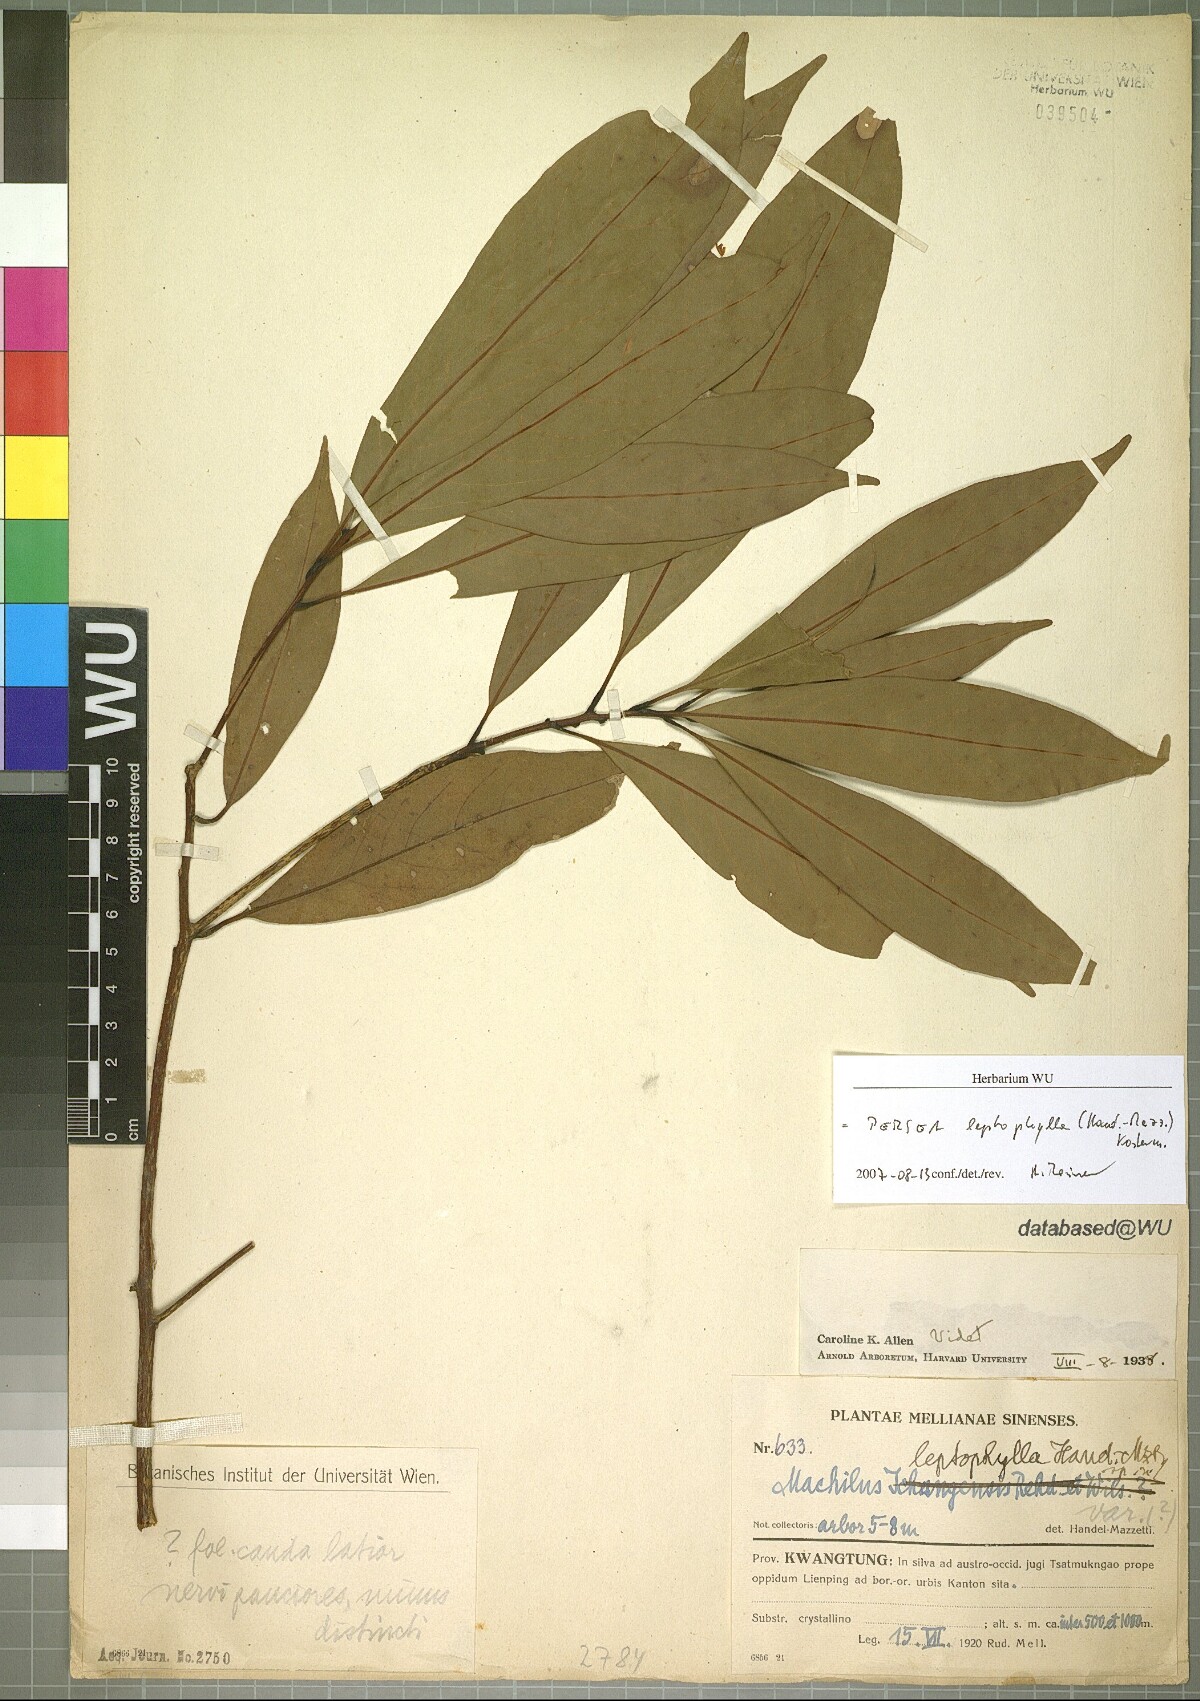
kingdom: Plantae
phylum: Tracheophyta
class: Magnoliopsida
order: Laurales
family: Lauraceae
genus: Machilus
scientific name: Machilus leptophylla
